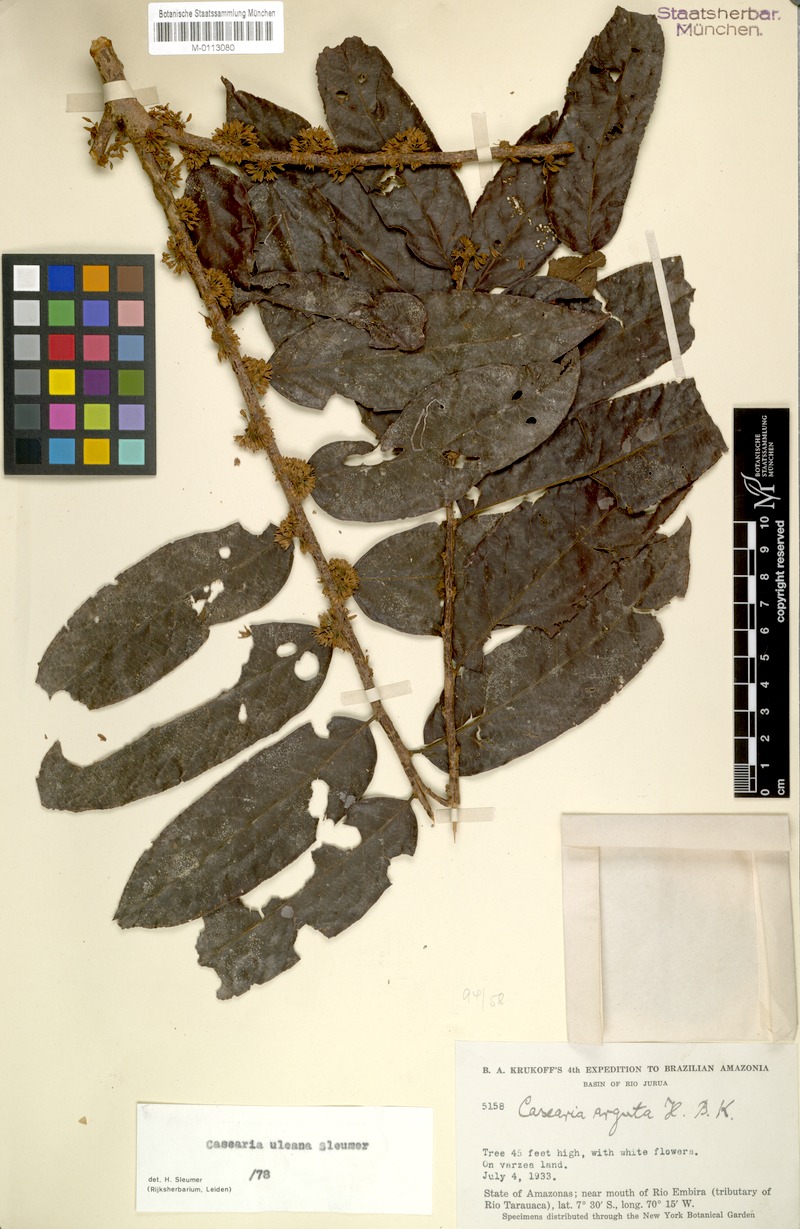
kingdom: Plantae
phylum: Tracheophyta
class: Magnoliopsida
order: Malpighiales
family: Salicaceae
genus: Casearia
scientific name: Casearia uleana
